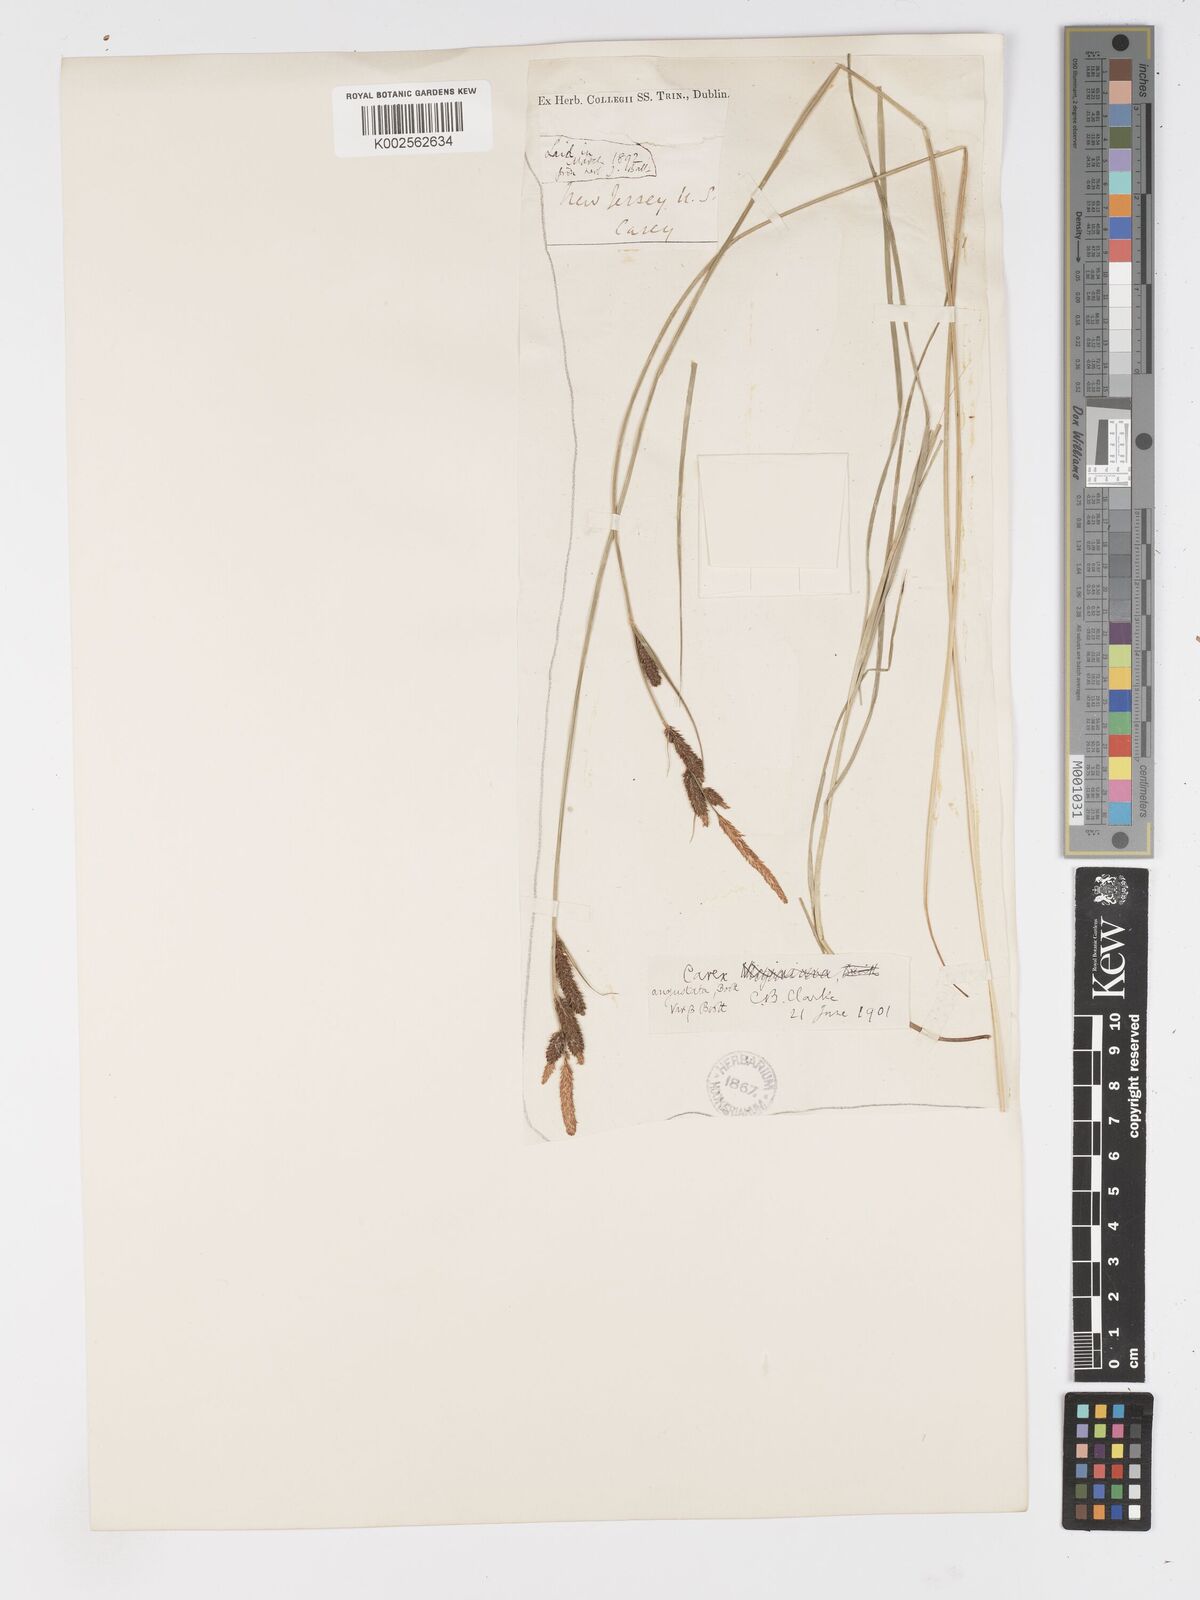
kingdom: Plantae
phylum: Tracheophyta
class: Liliopsida
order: Poales
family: Cyperaceae
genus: Carex
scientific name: Carex stricta
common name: Hummock sedge
